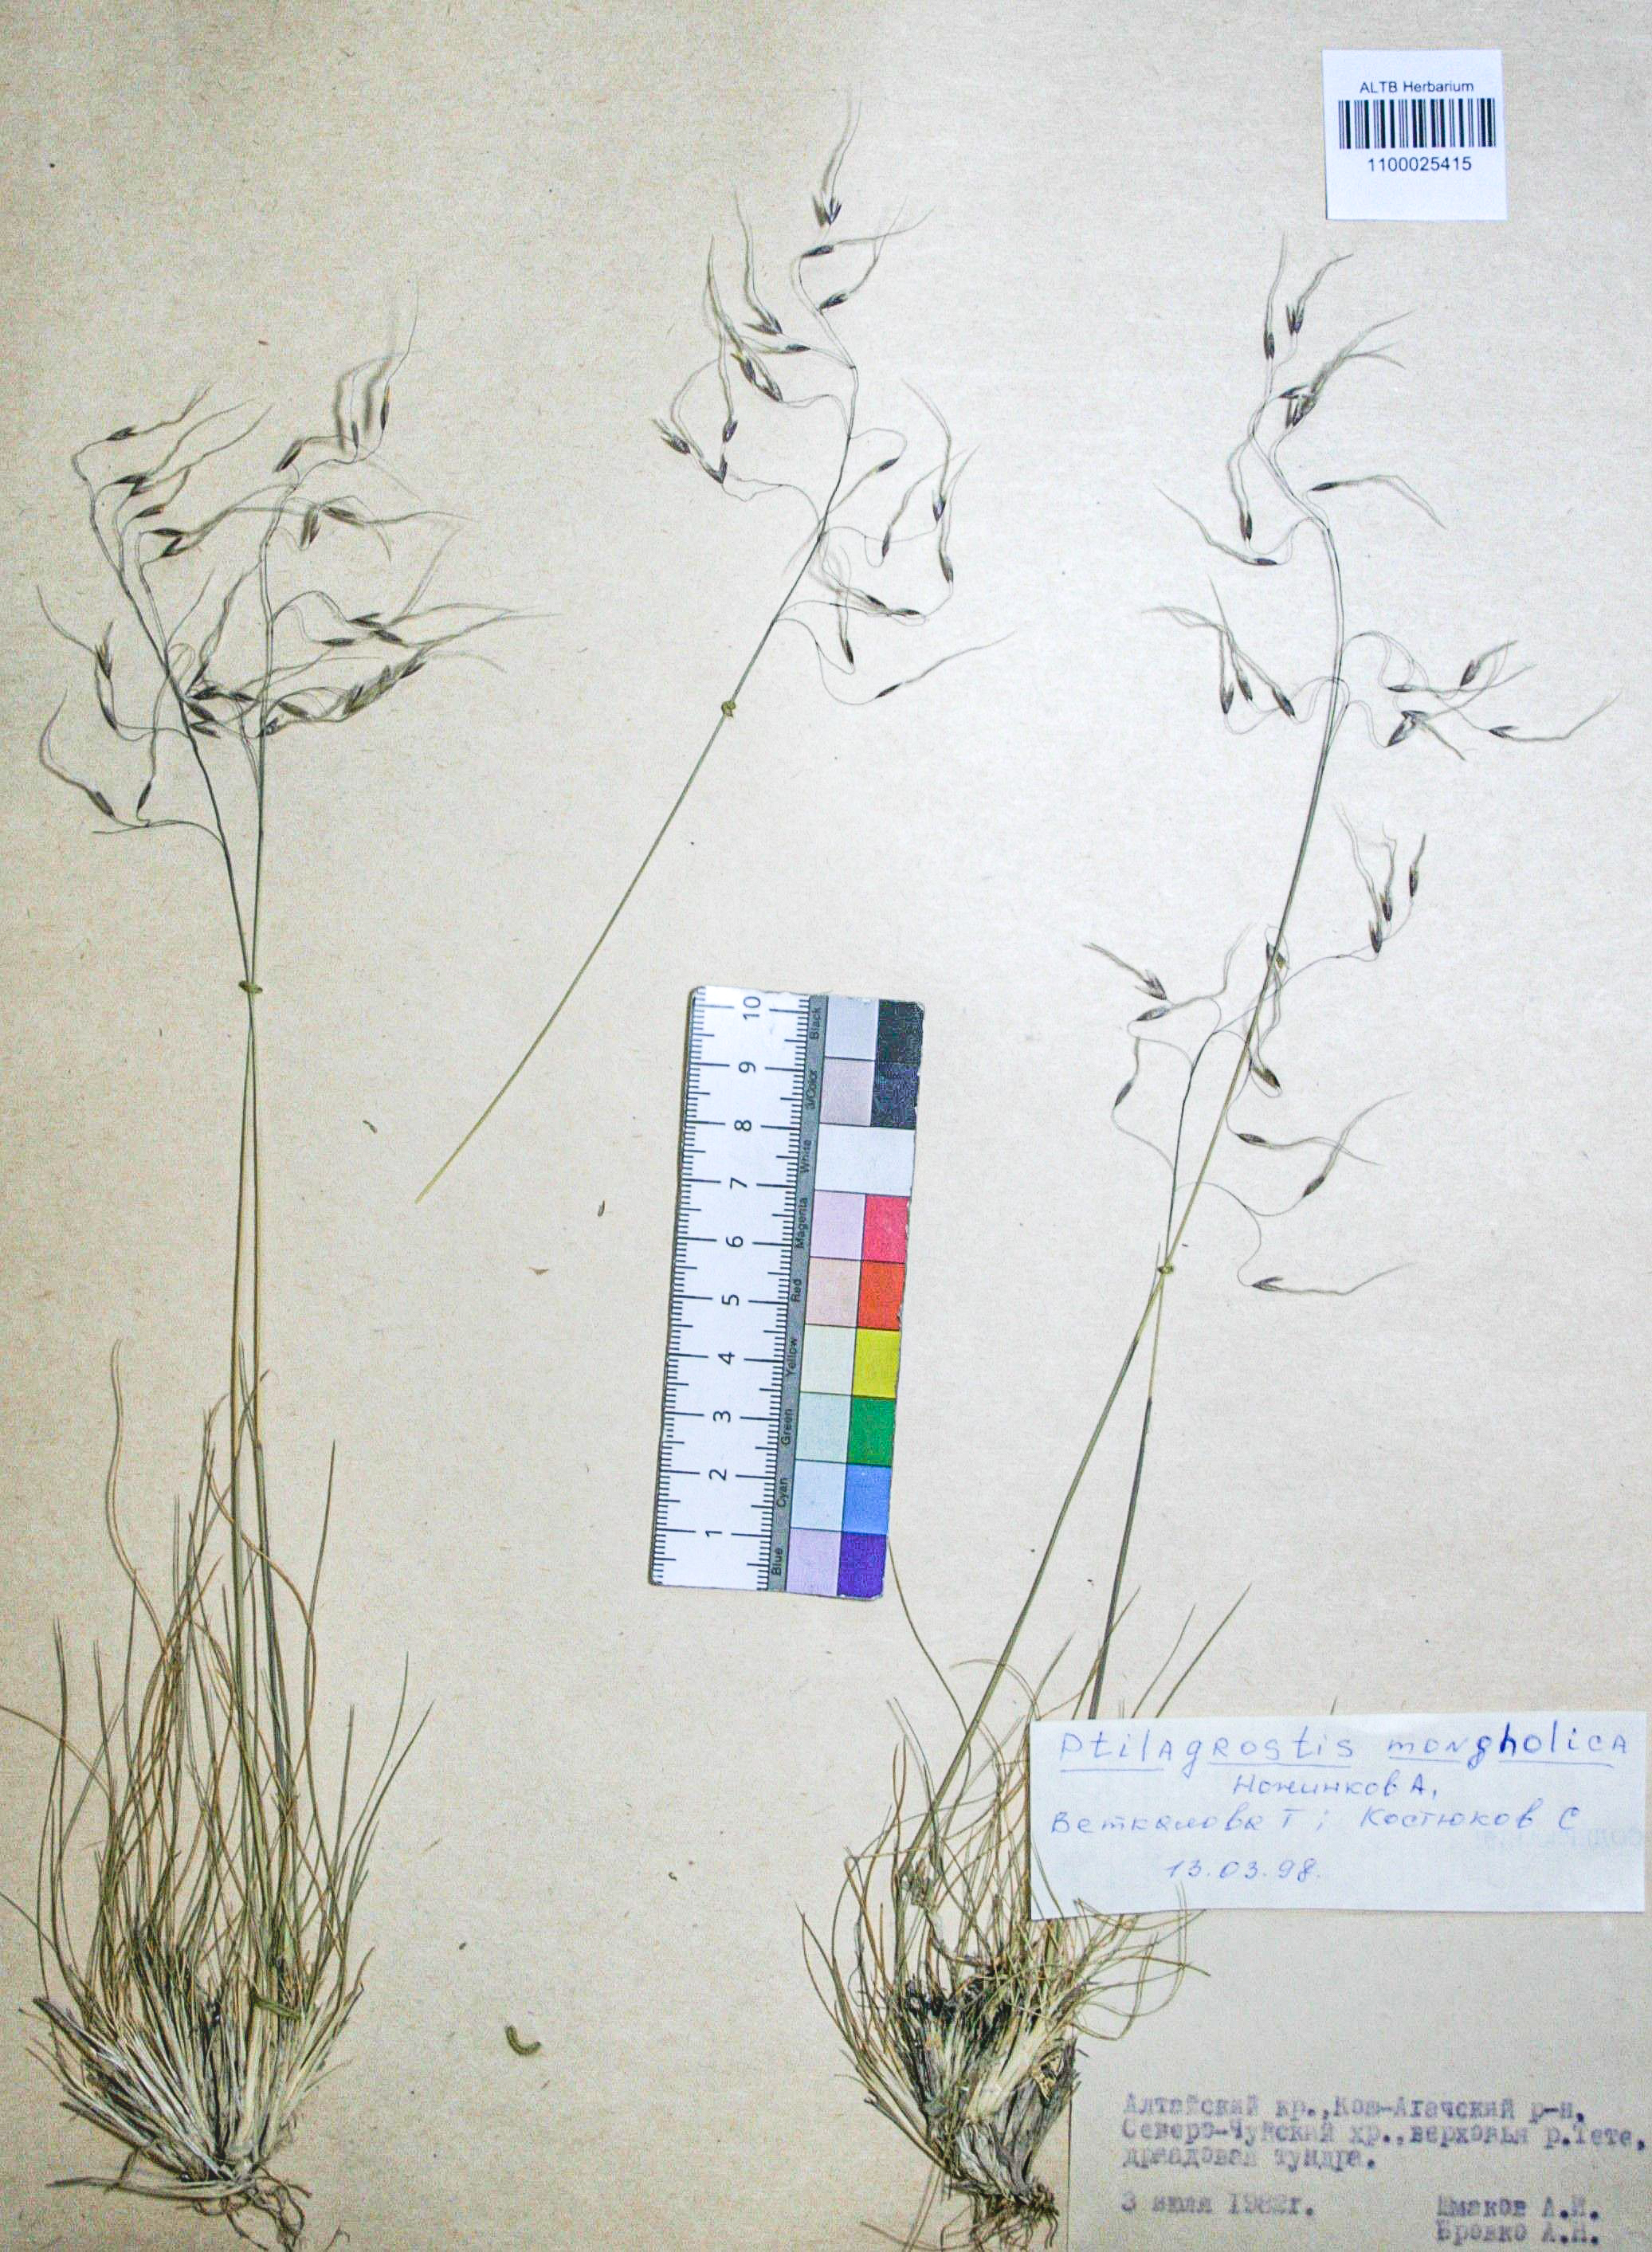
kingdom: Plantae
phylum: Tracheophyta
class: Liliopsida
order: Poales
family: Poaceae
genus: Ptilagrostis
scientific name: Ptilagrostis mongholica
